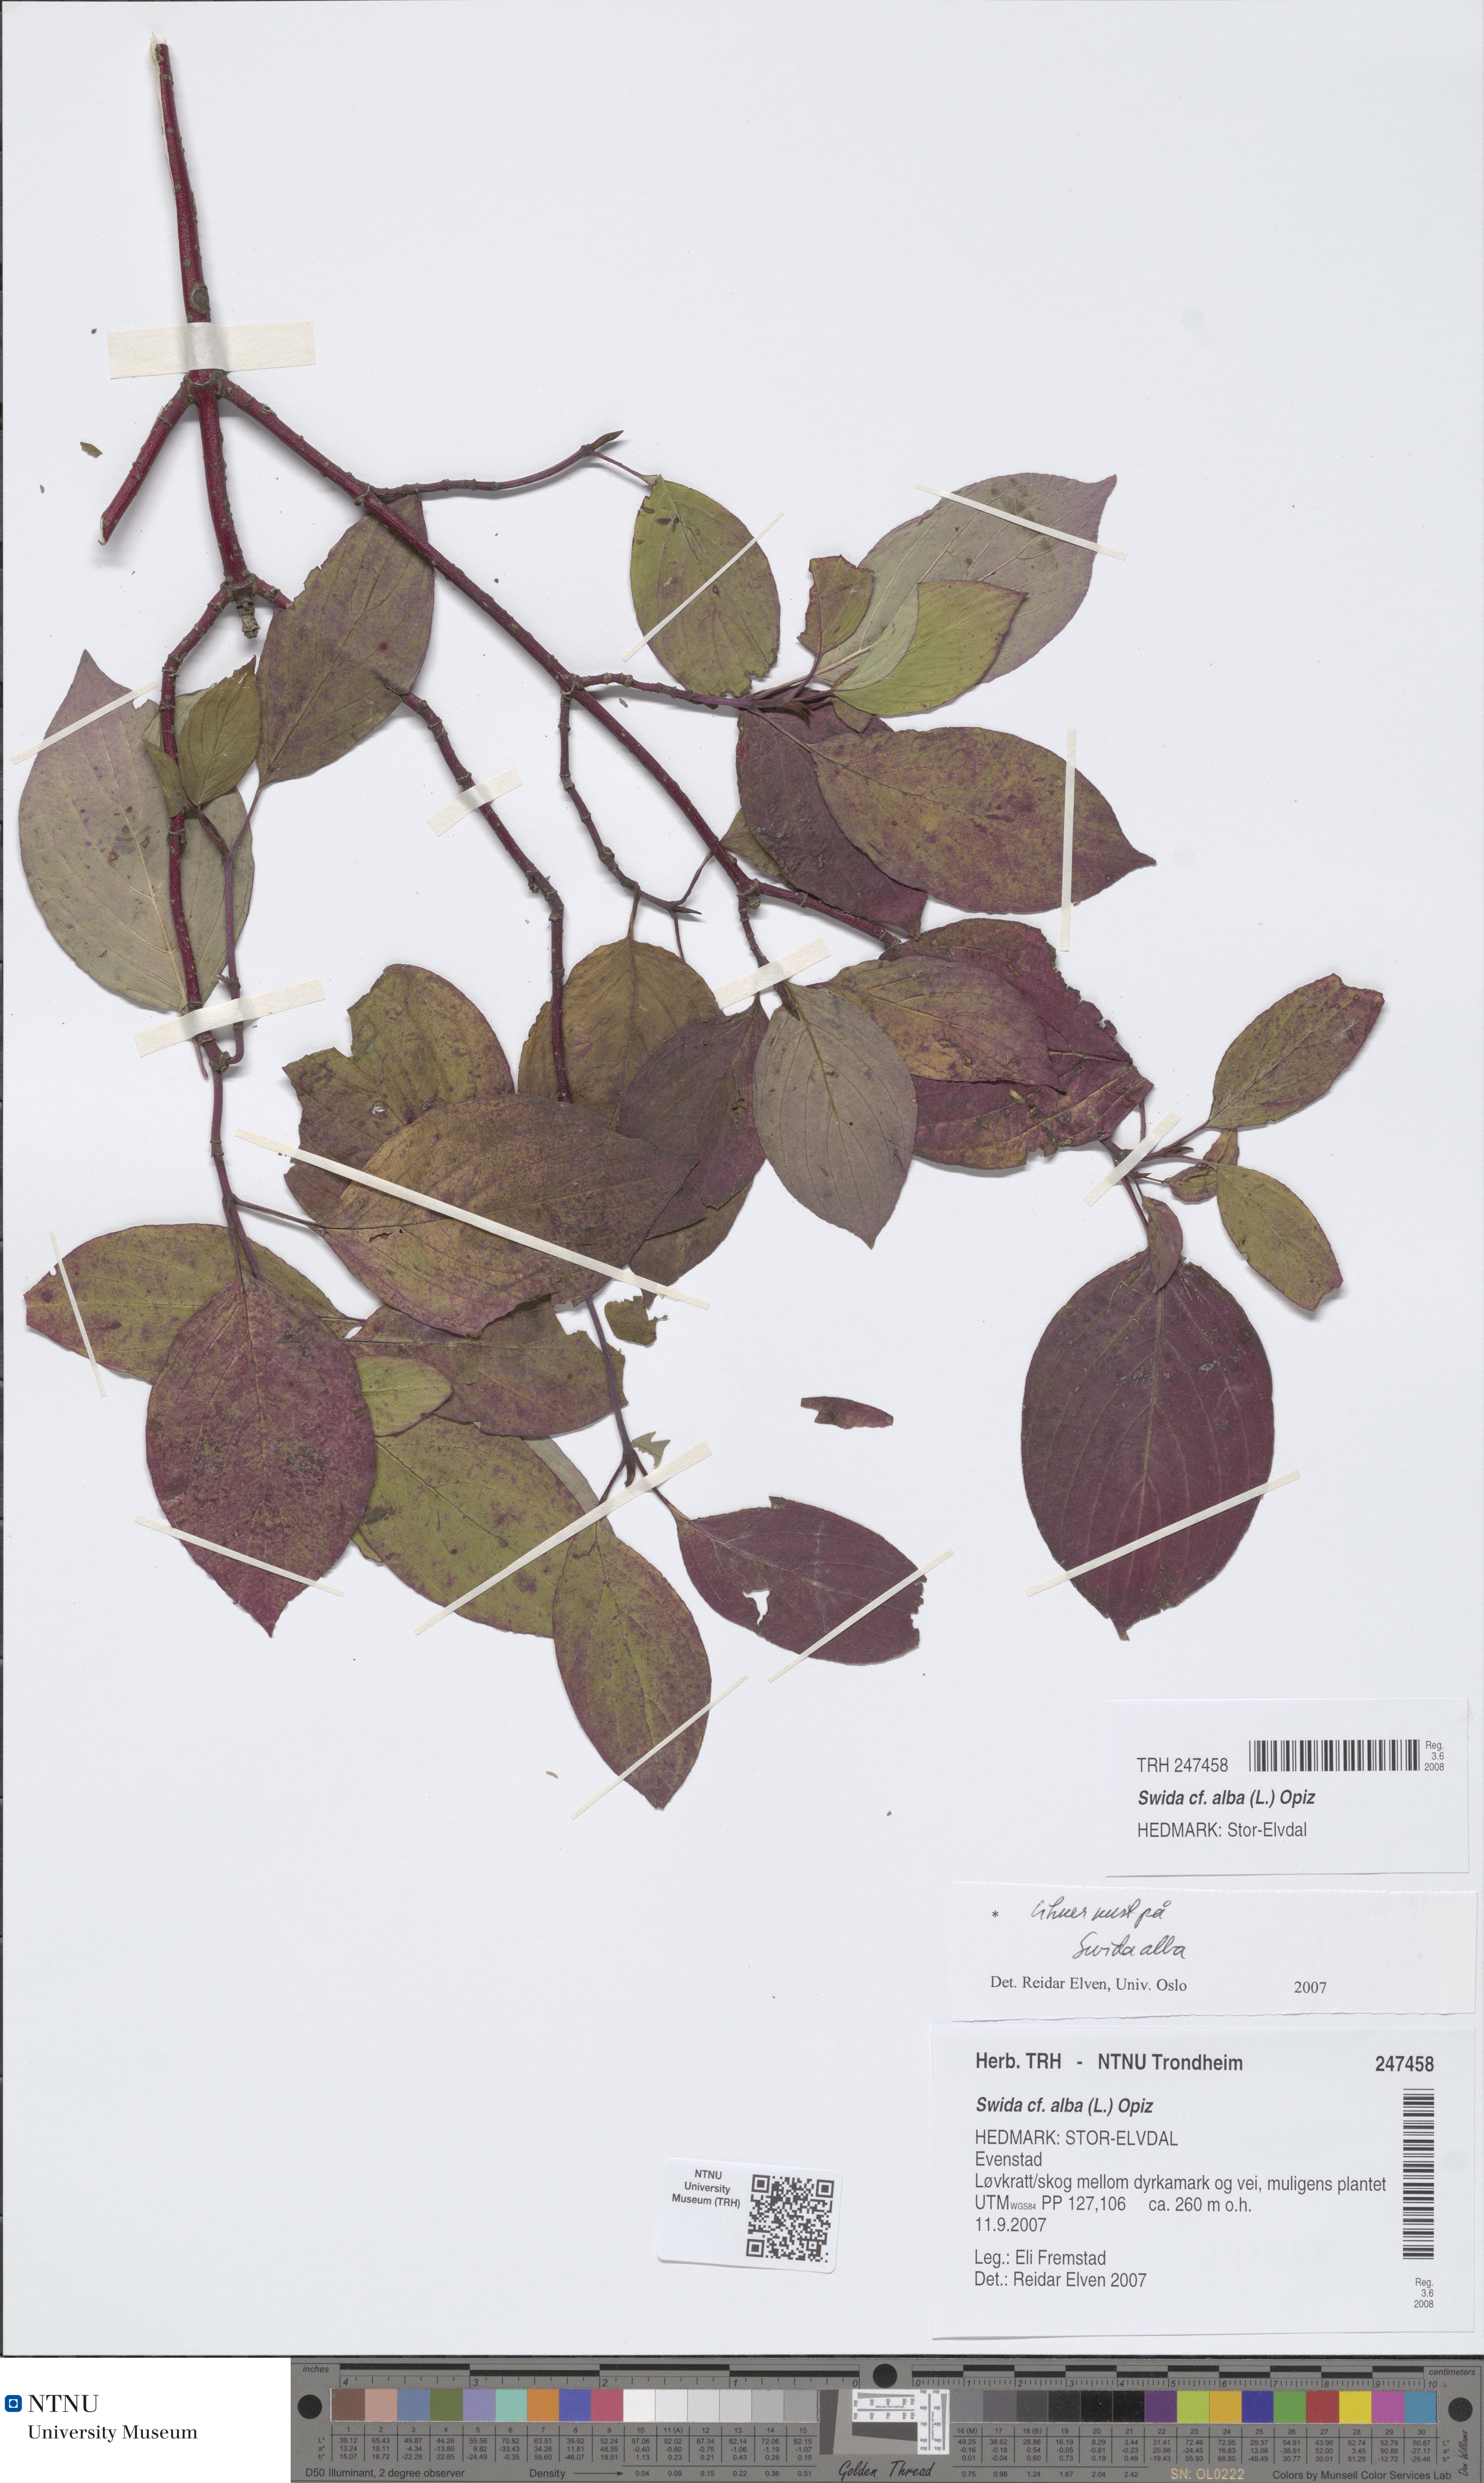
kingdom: Plantae
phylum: Tracheophyta
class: Magnoliopsida
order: Cornales
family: Cornaceae
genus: Cornus
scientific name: Cornus alba
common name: White dogwood
